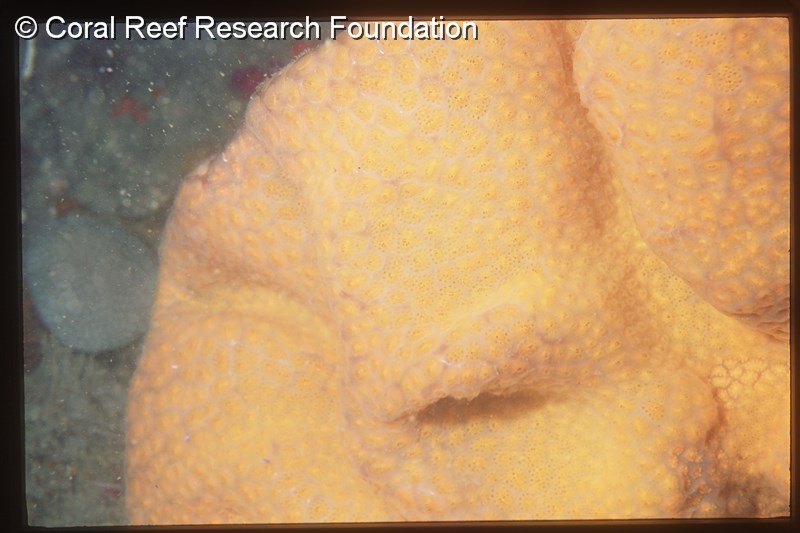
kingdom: Animalia
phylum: Chordata
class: Ascidiacea
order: Aplousobranchia
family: Polyclinidae
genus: Polyclinum
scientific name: Polyclinum
